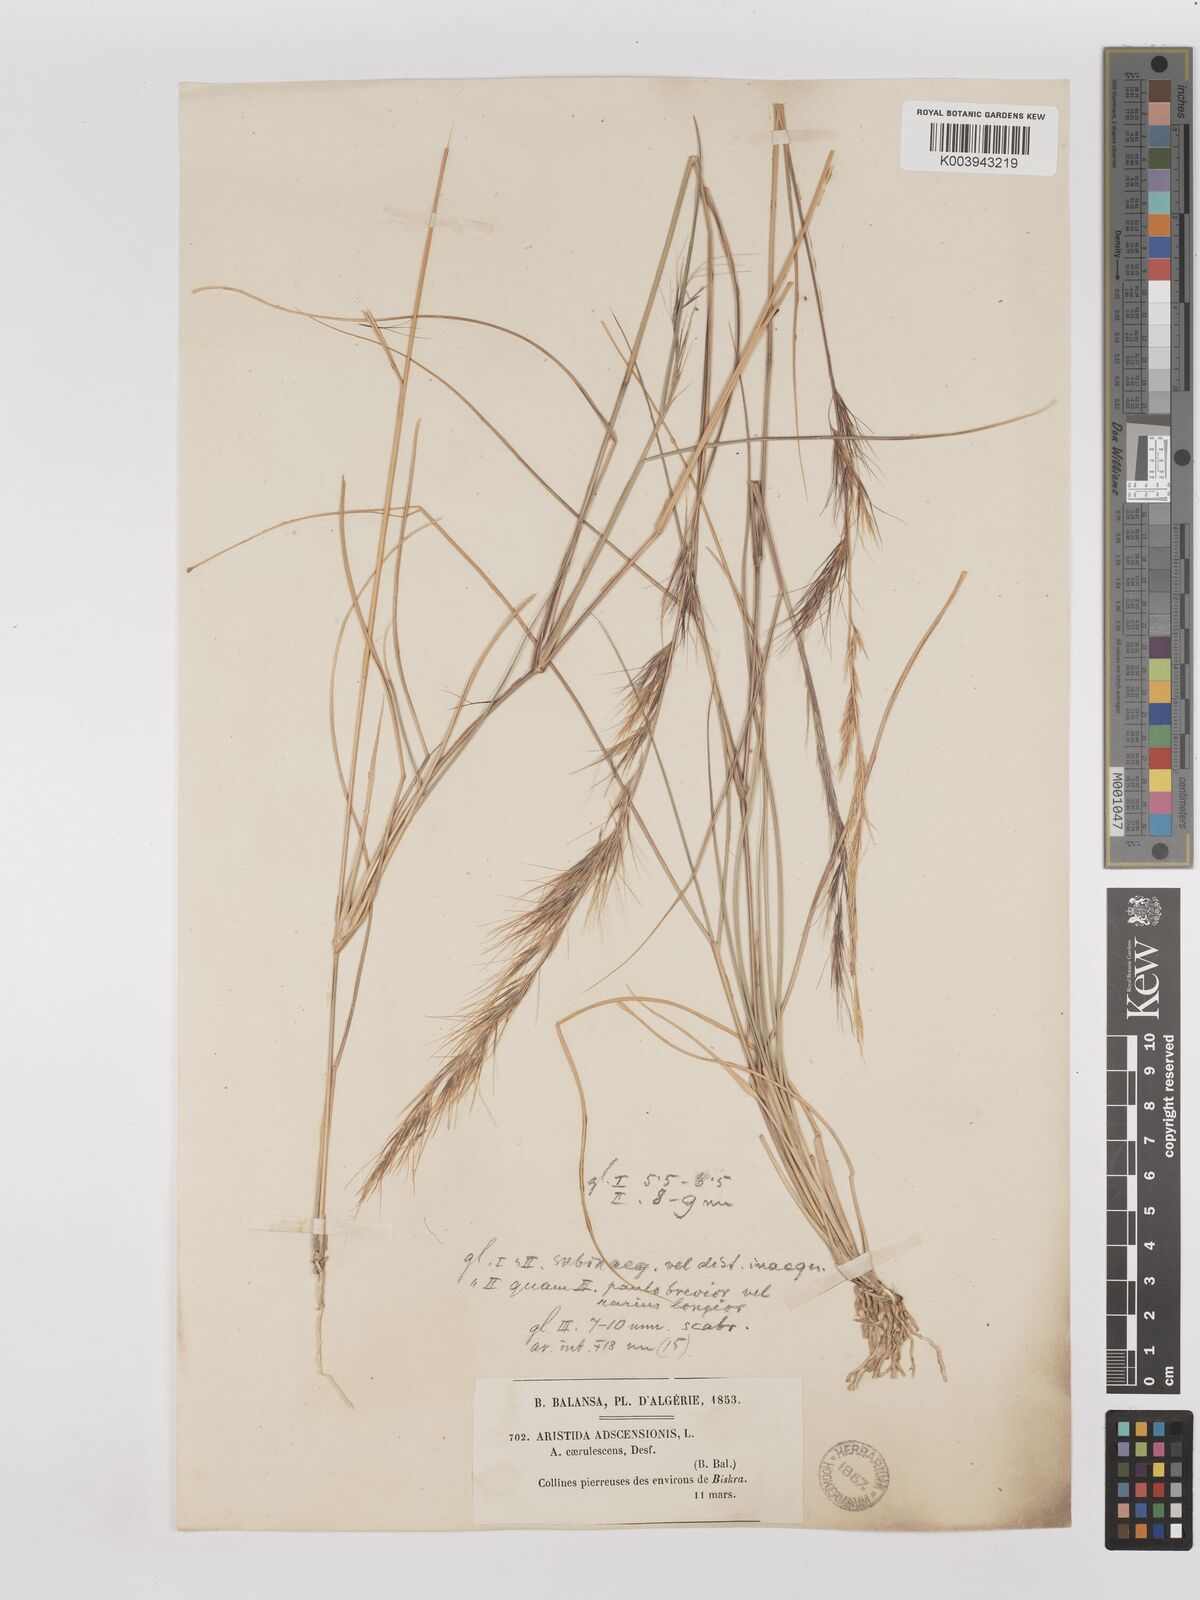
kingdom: Plantae
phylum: Tracheophyta
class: Liliopsida
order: Poales
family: Poaceae
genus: Aristida
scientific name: Aristida adscensionis
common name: Sixweeks threeawn
